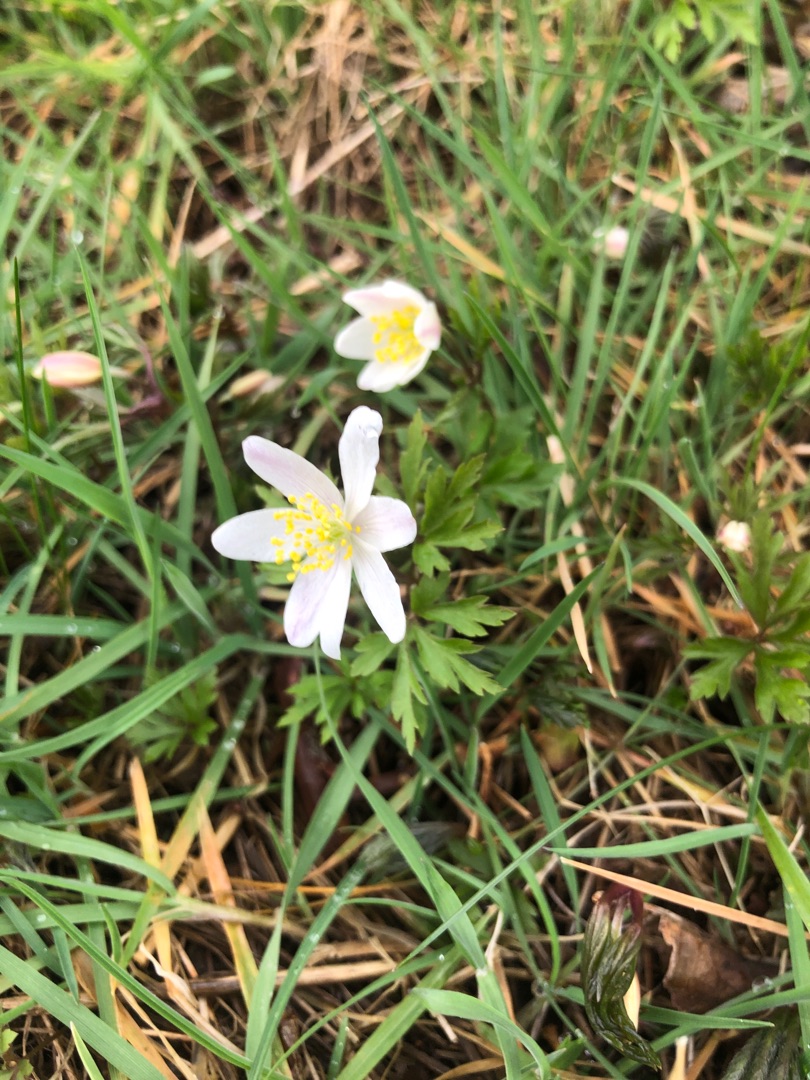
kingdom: Plantae
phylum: Tracheophyta
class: Magnoliopsida
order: Ranunculales
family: Ranunculaceae
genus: Anemone
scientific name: Anemone nemorosa
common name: Hvid anemone
